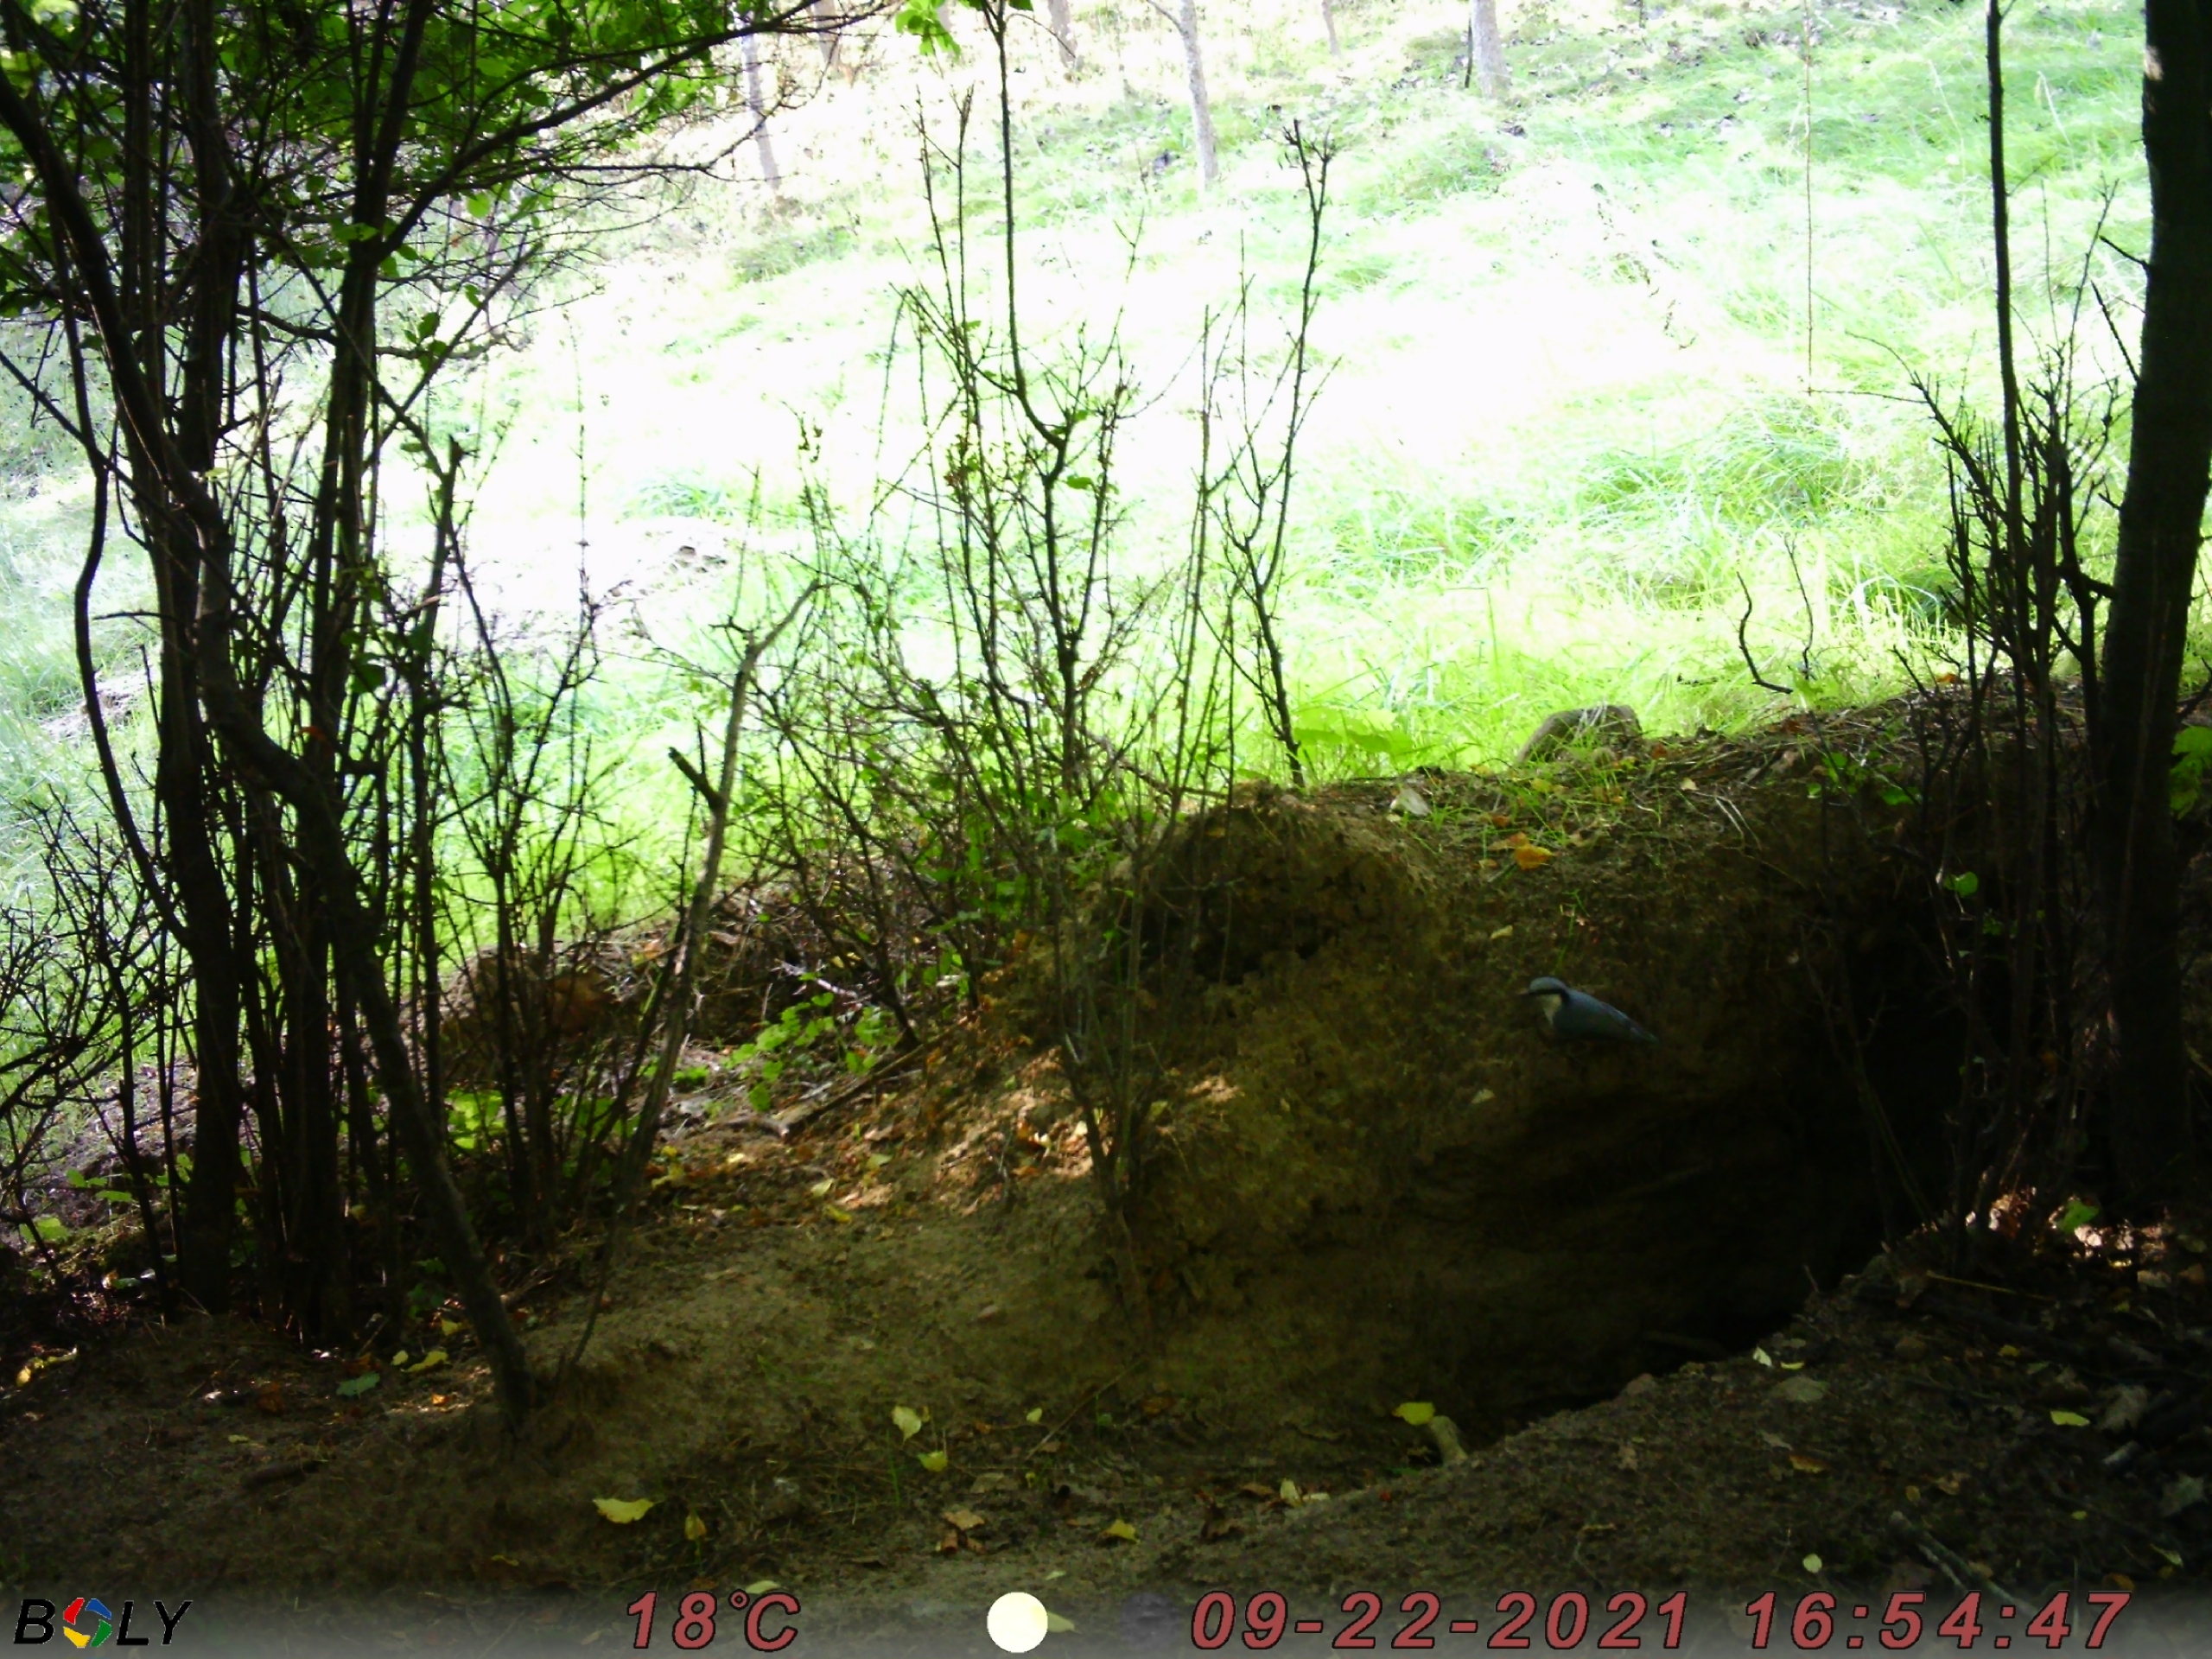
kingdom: Animalia
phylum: Chordata
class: Aves
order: Passeriformes
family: Sittidae
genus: Sitta
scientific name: Sitta europaea
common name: Spætmejse
